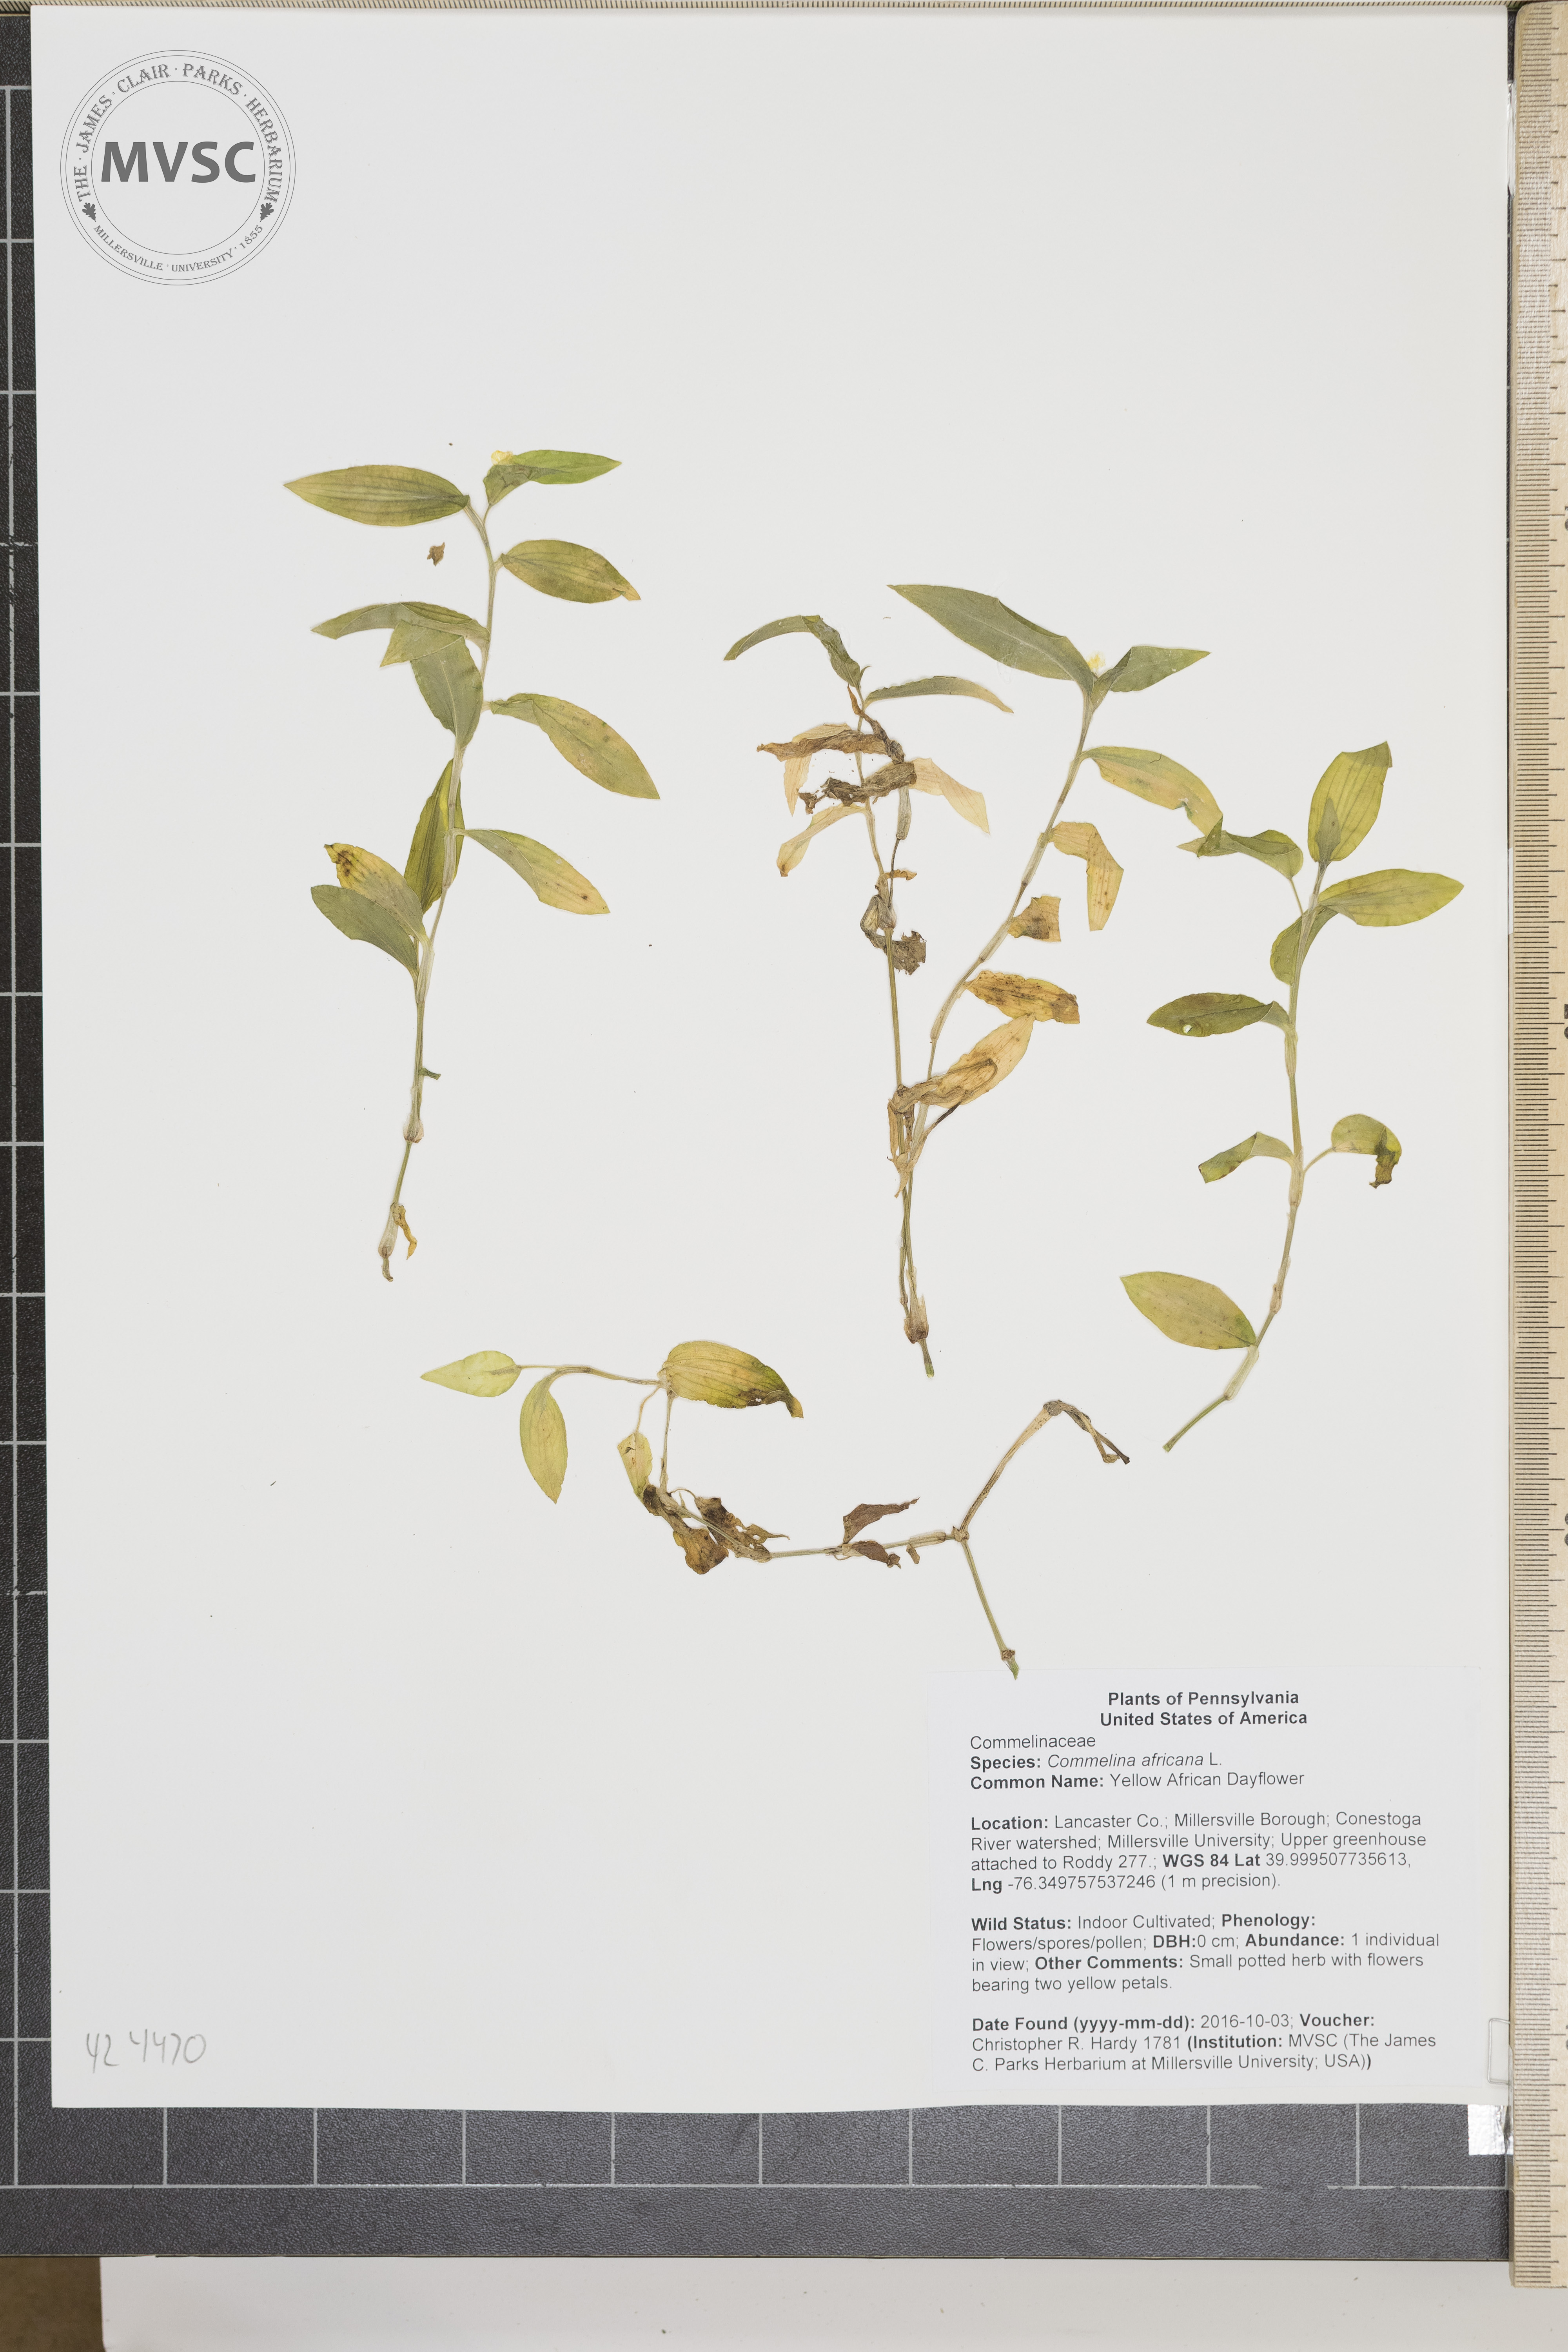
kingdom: Plantae
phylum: Tracheophyta
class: Liliopsida
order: Commelinales
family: Commelinaceae
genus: Commelina
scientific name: Commelina africana
